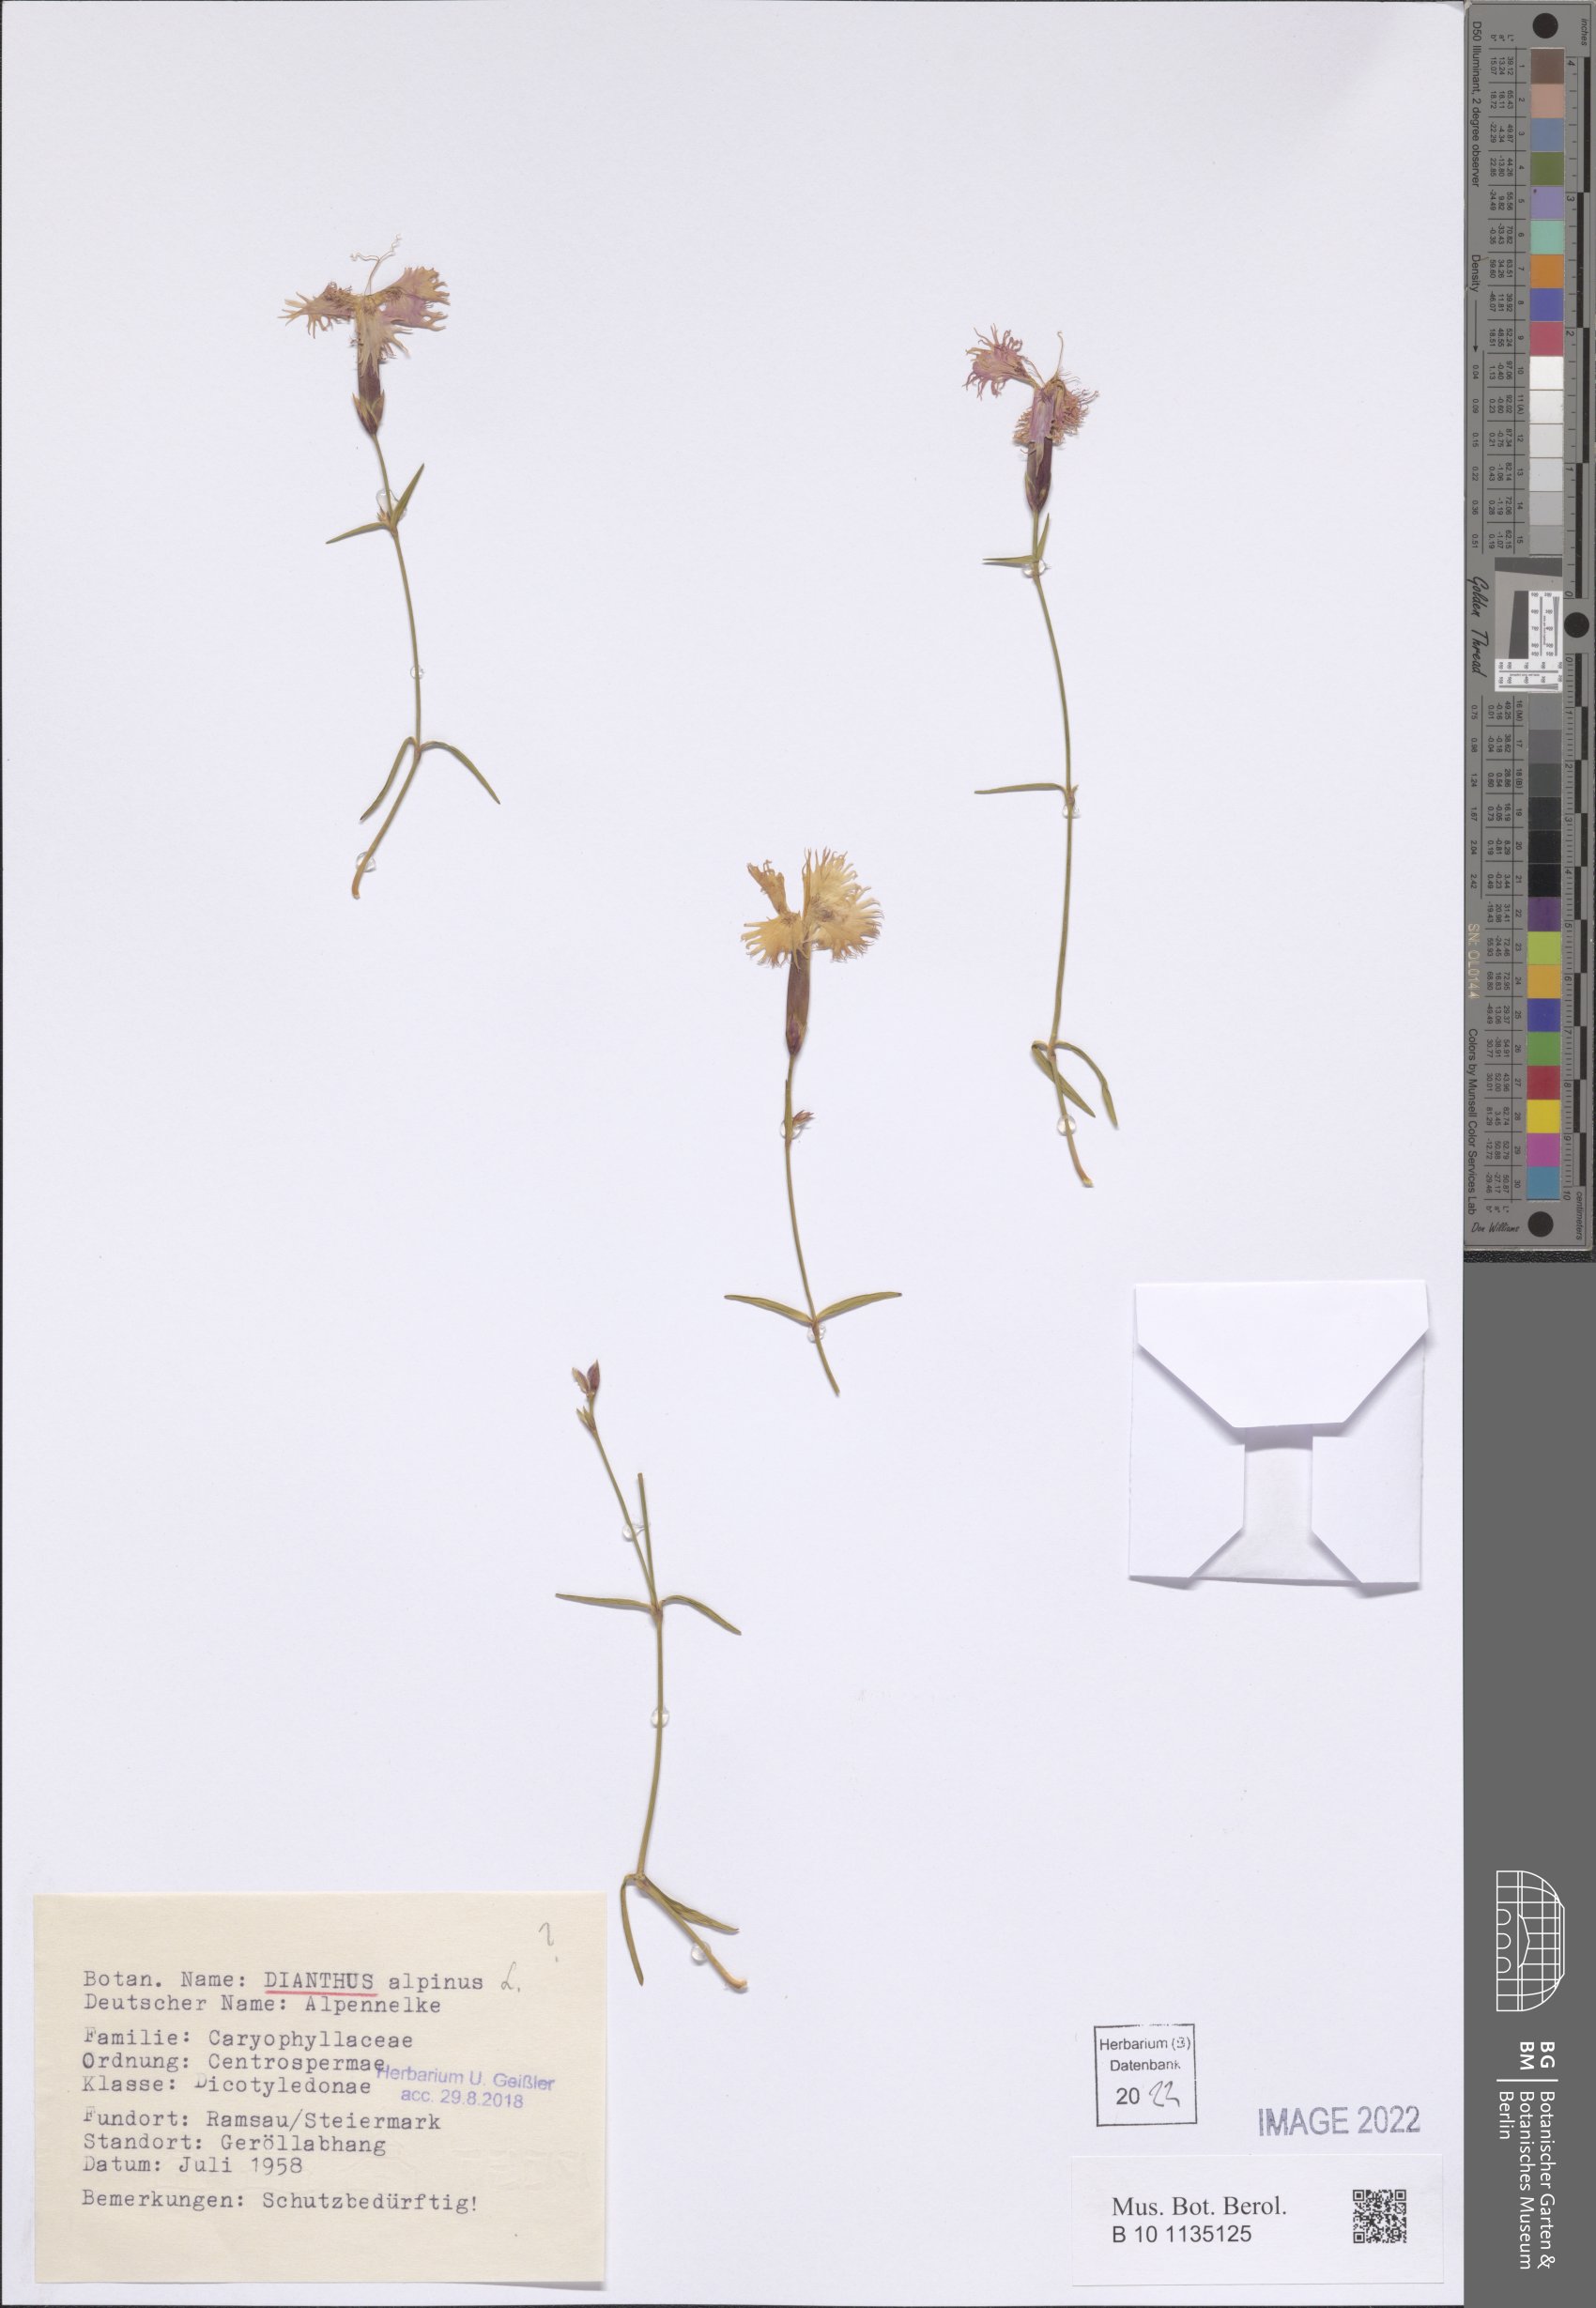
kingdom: Plantae
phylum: Tracheophyta
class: Magnoliopsida
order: Caryophyllales
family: Caryophyllaceae
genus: Dianthus
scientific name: Dianthus alpinus
